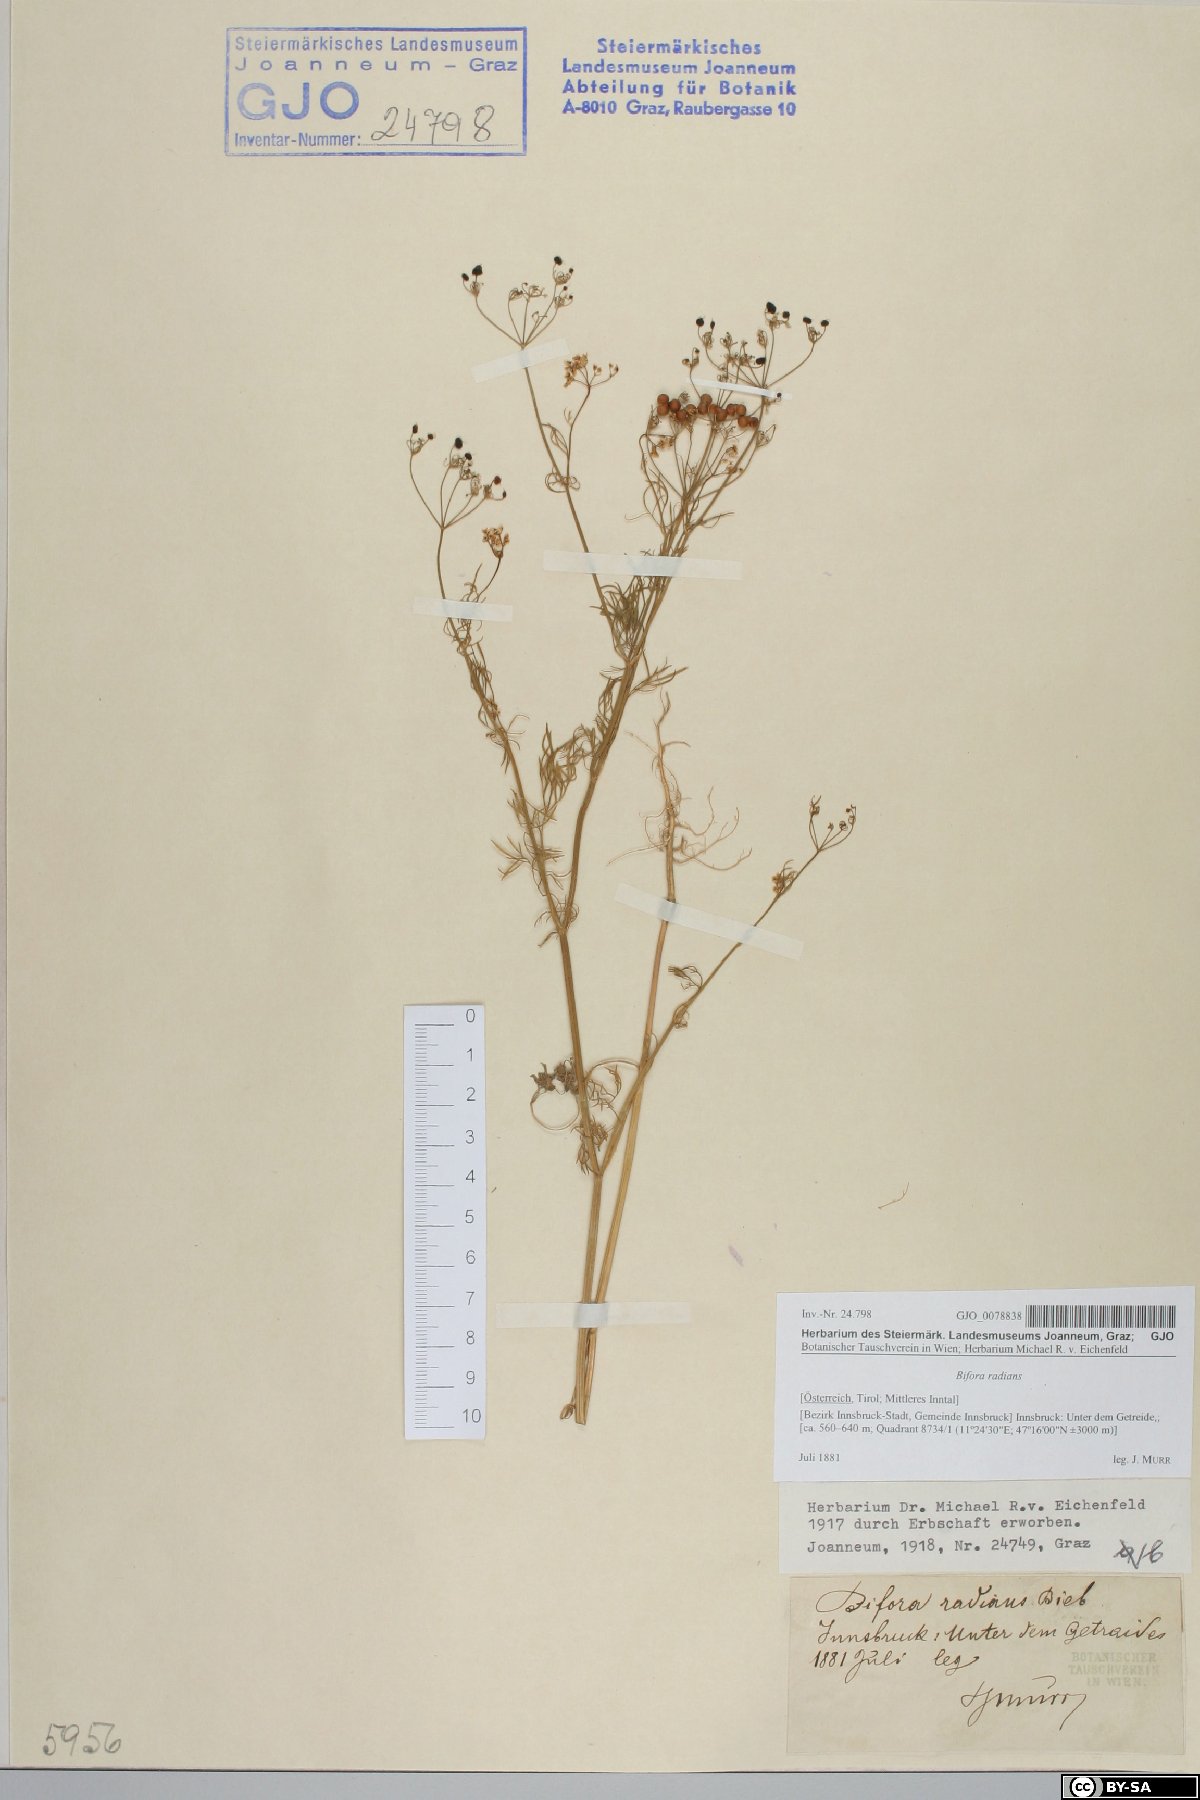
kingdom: Plantae
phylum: Tracheophyta
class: Magnoliopsida
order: Apiales
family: Apiaceae
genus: Bifora
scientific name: Bifora radians
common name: Wild bishop
